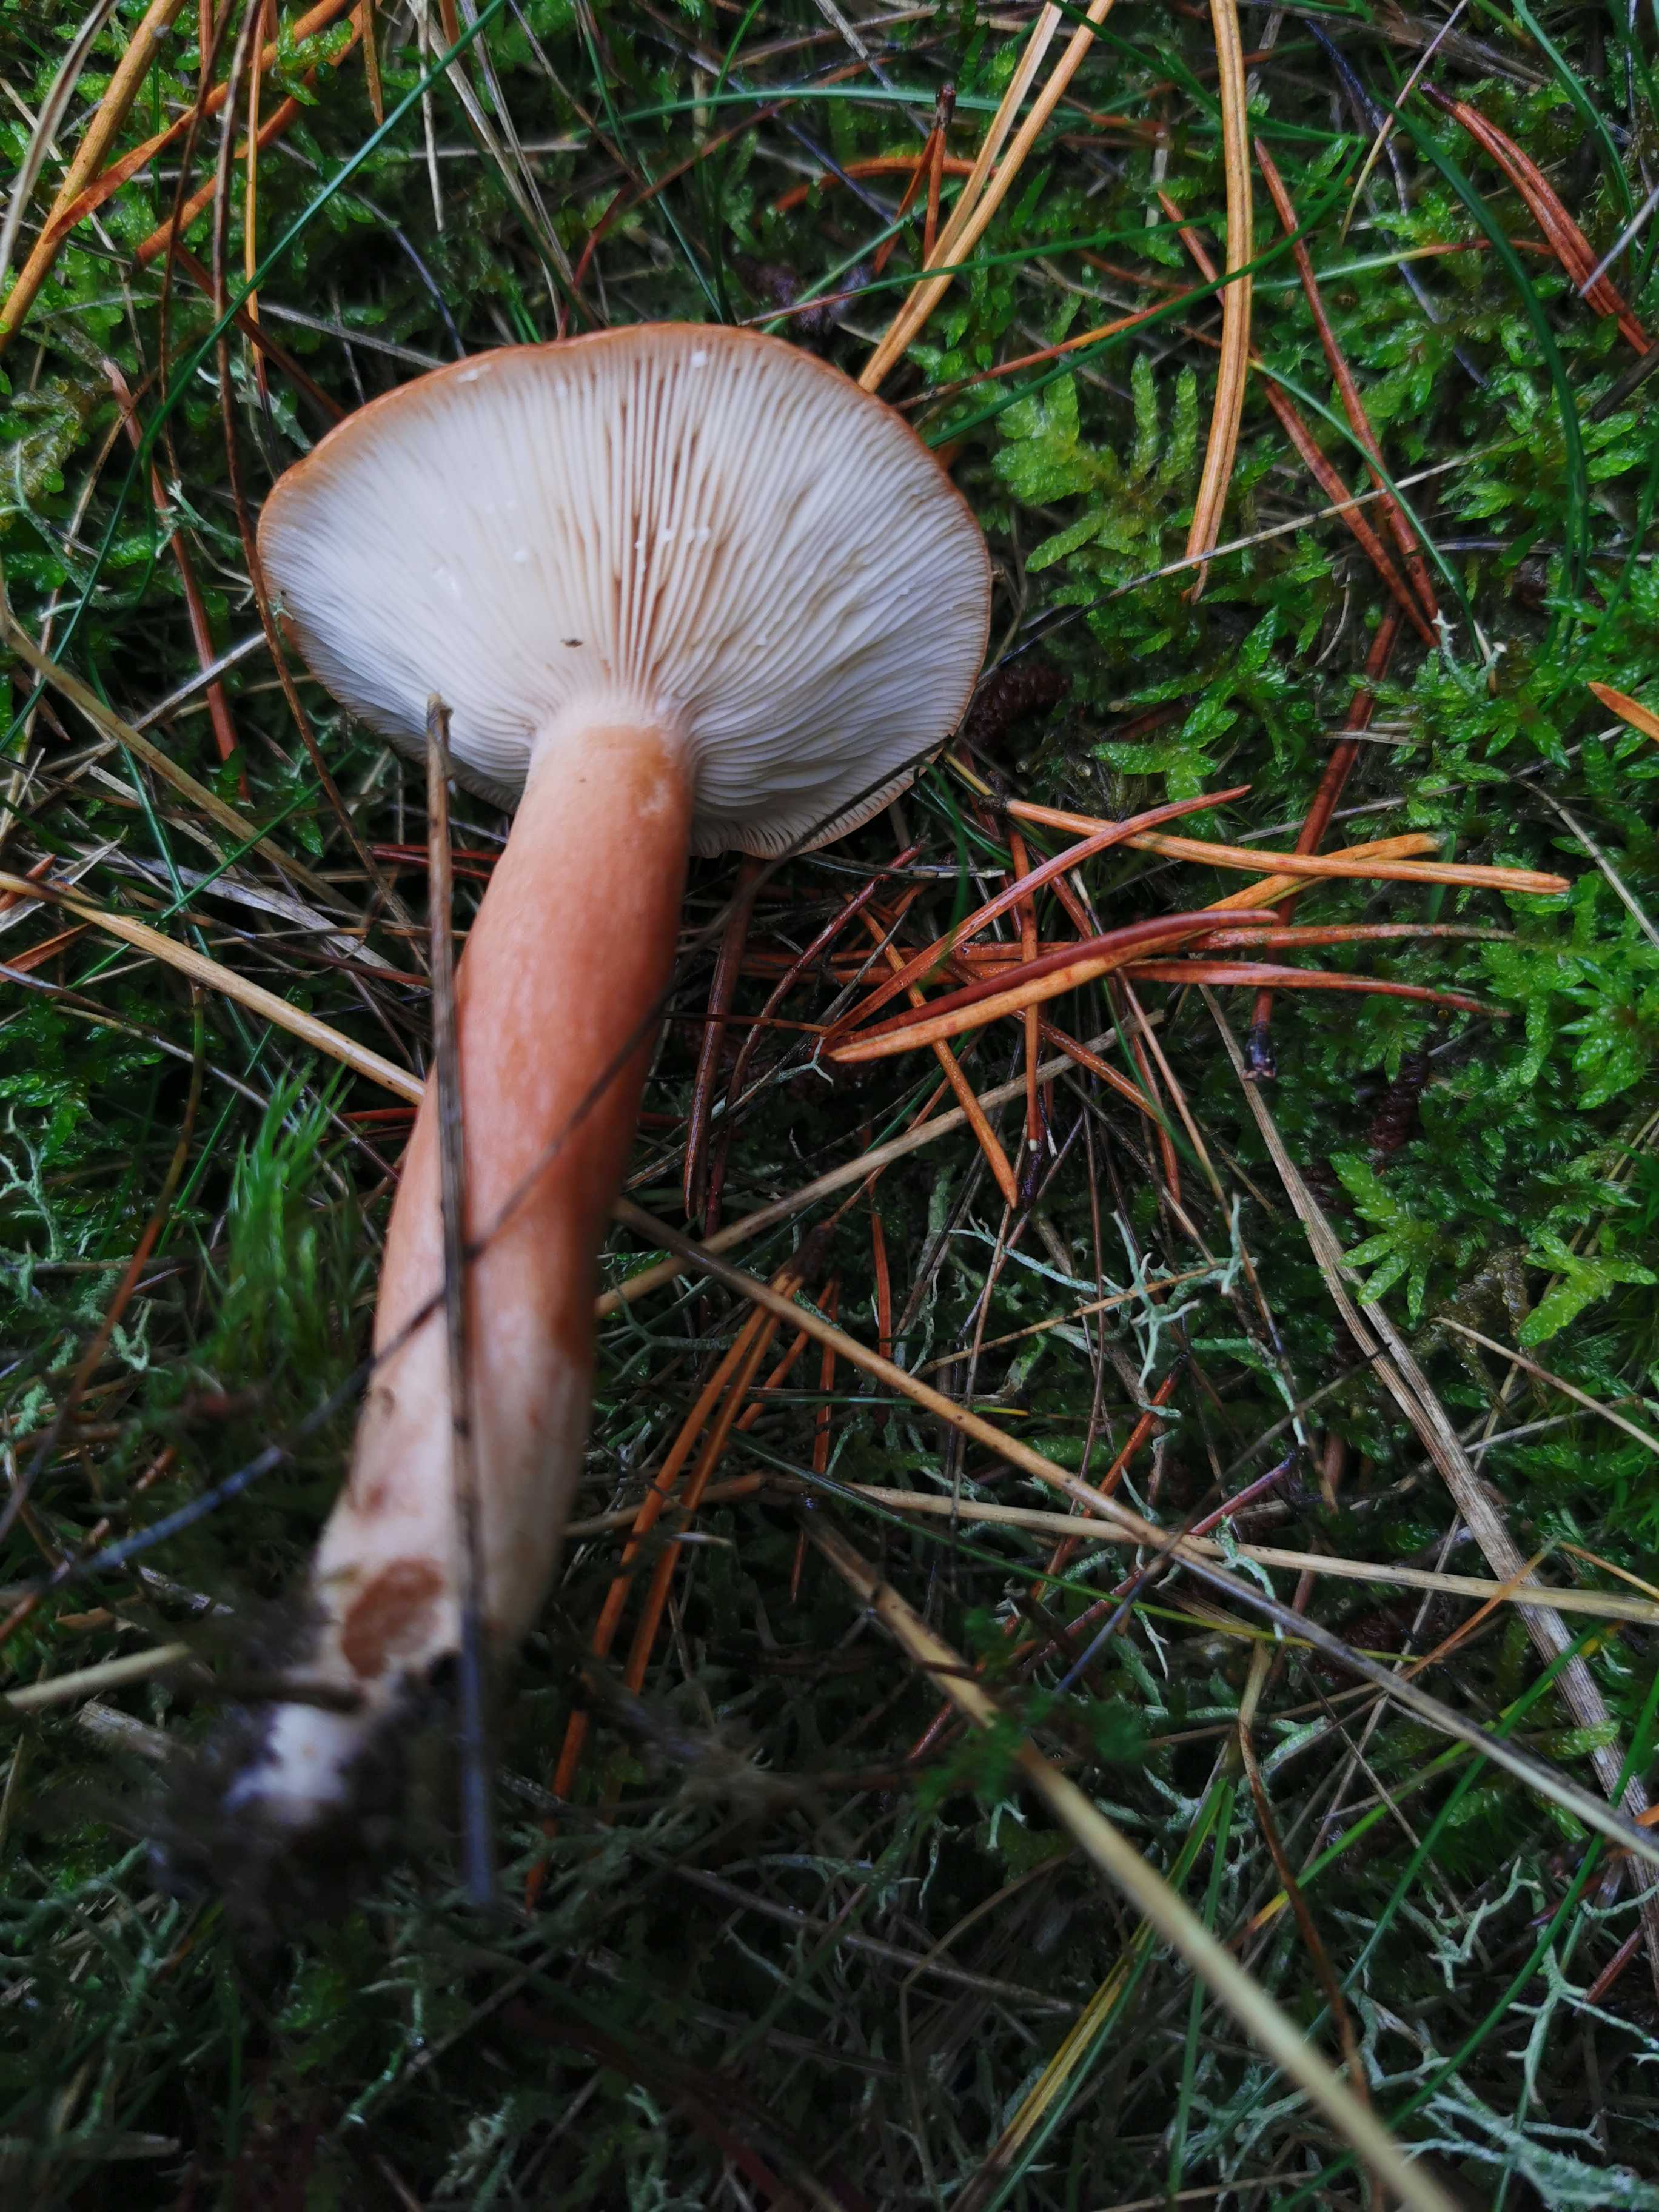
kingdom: Fungi
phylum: Basidiomycota
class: Agaricomycetes
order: Russulales
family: Russulaceae
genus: Lactarius
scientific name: Lactarius
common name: mælkehat
